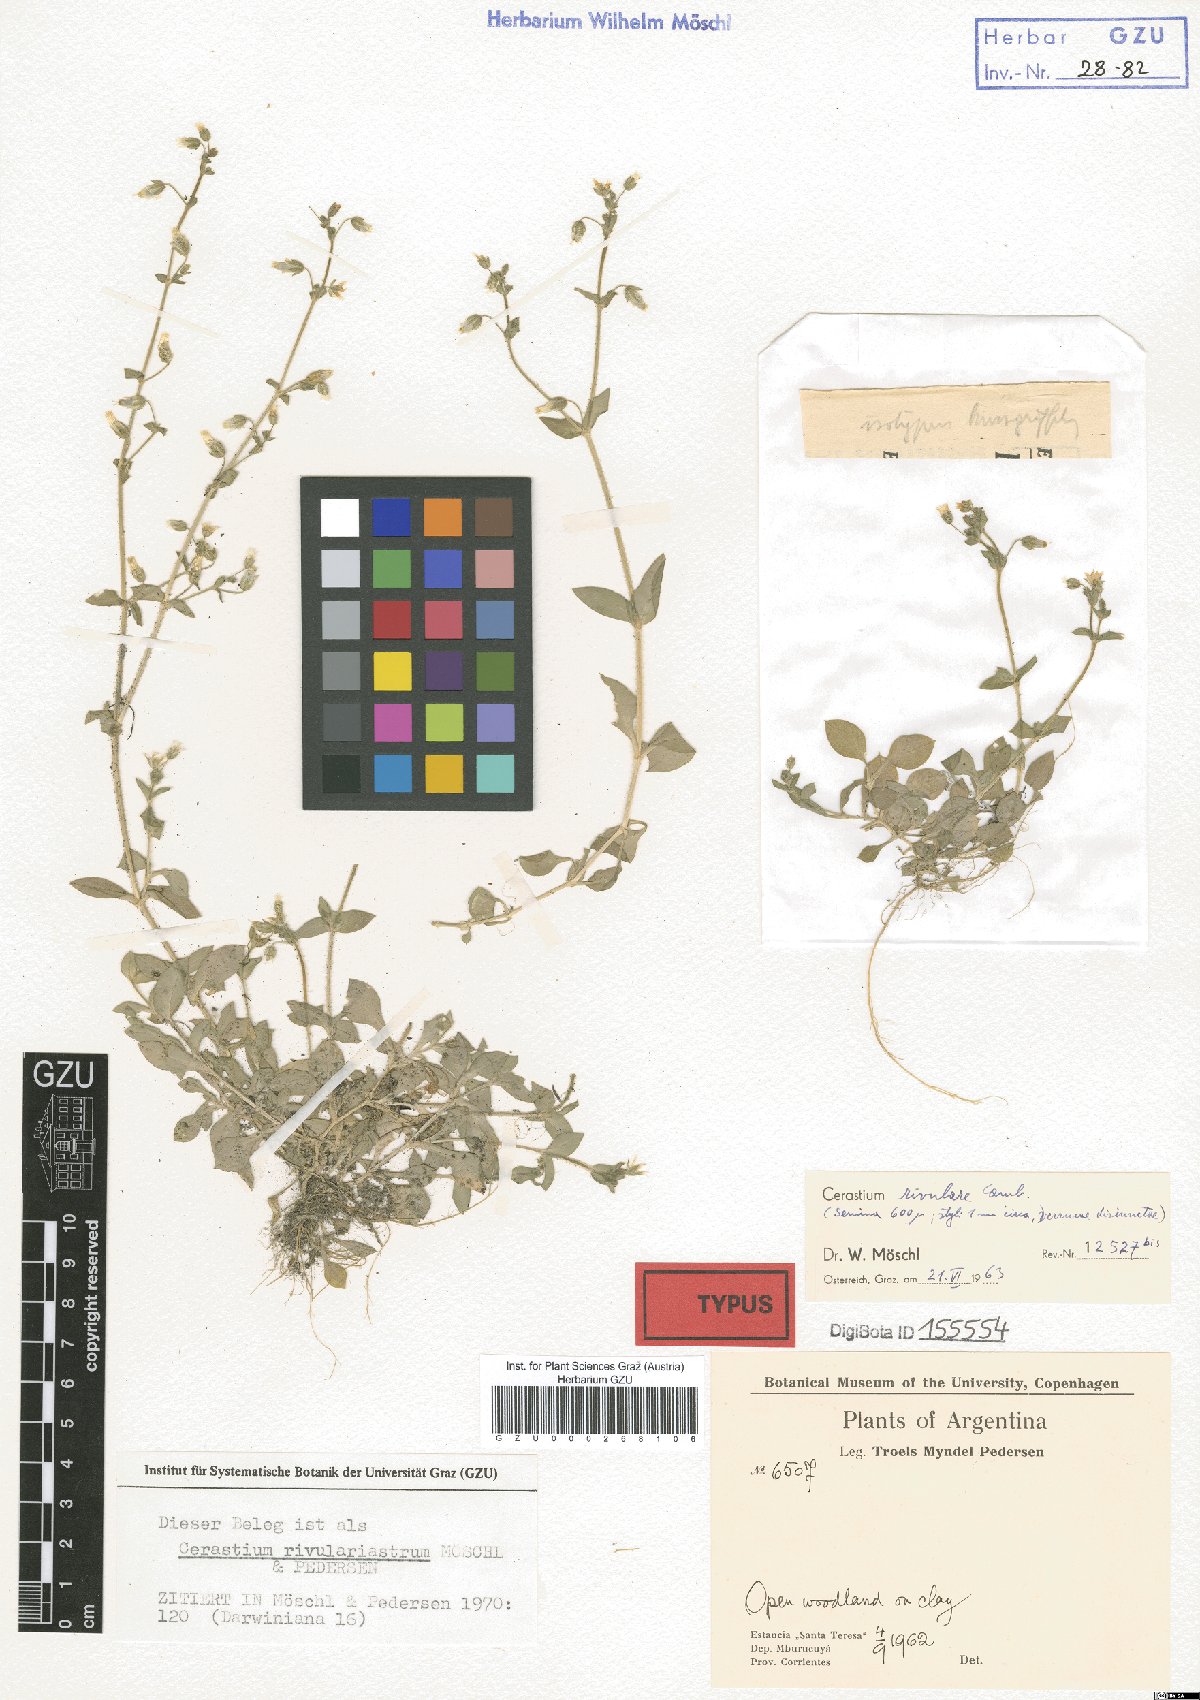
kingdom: Plantae
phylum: Tracheophyta
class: Magnoliopsida
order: Caryophyllales
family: Caryophyllaceae
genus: Cerastium
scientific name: Cerastium rivulariastrum
